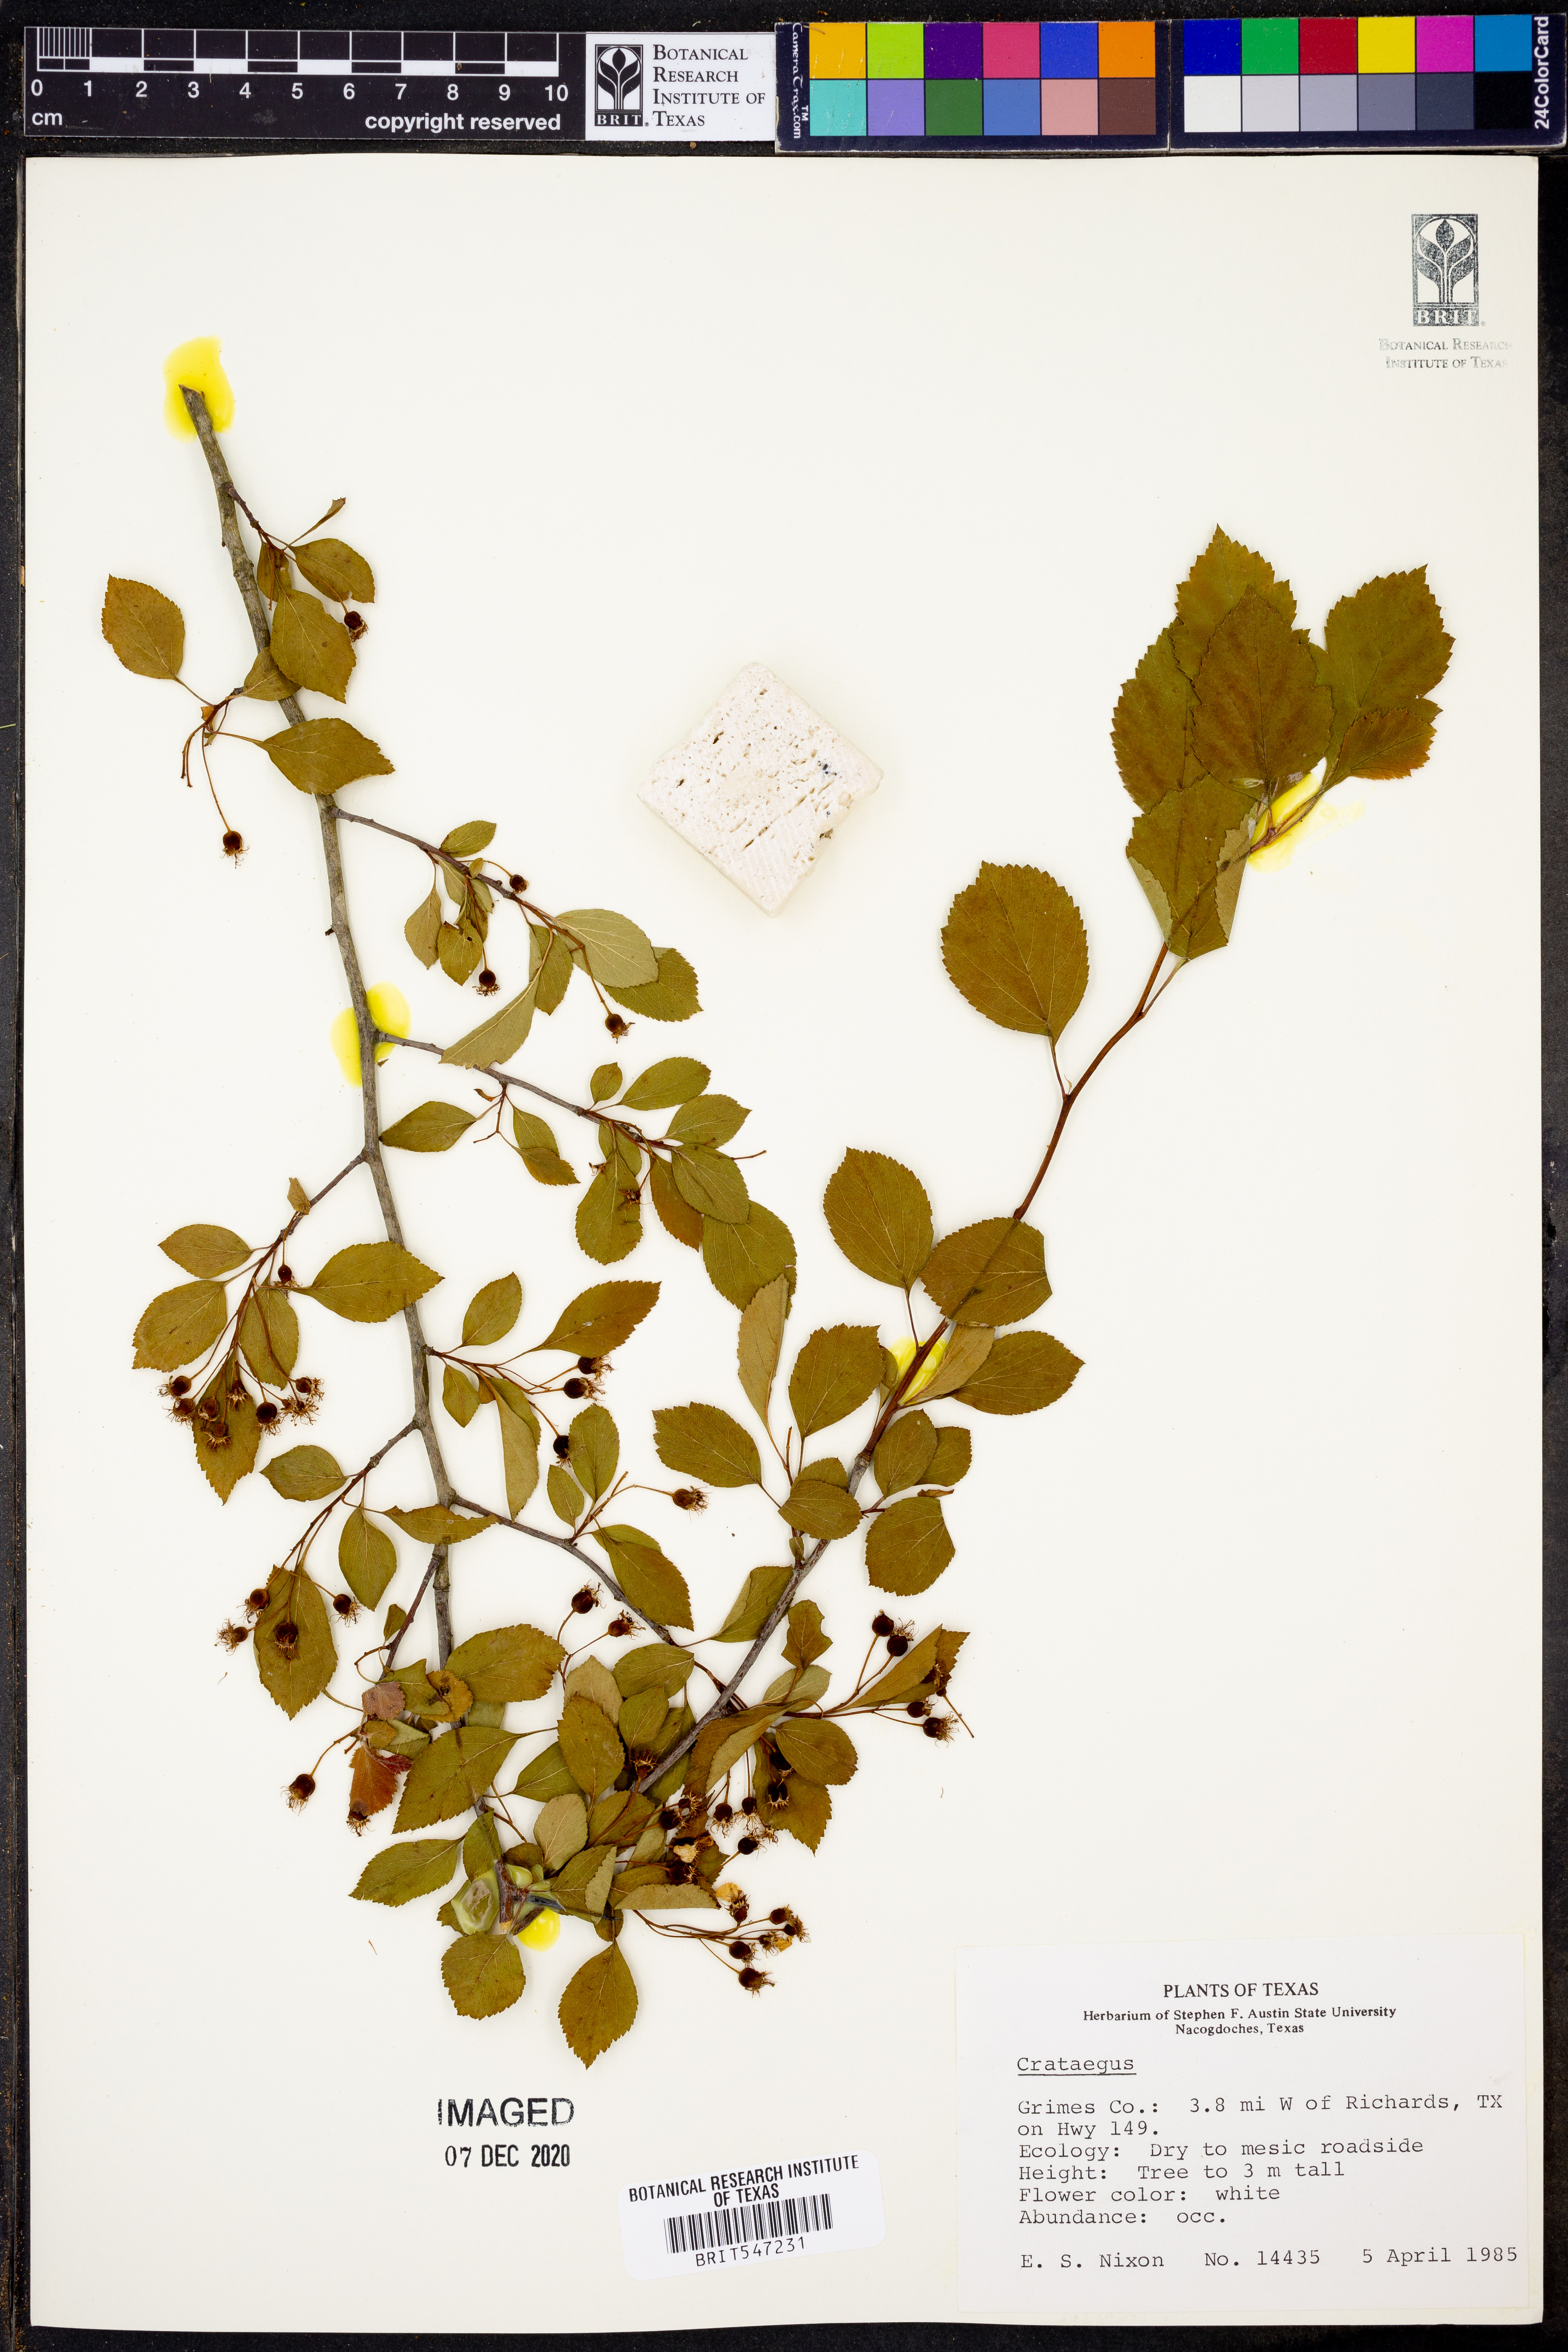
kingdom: Plantae
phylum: Tracheophyta
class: Magnoliopsida
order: Rosales
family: Rosaceae
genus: Crataegus
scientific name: Crataegus
